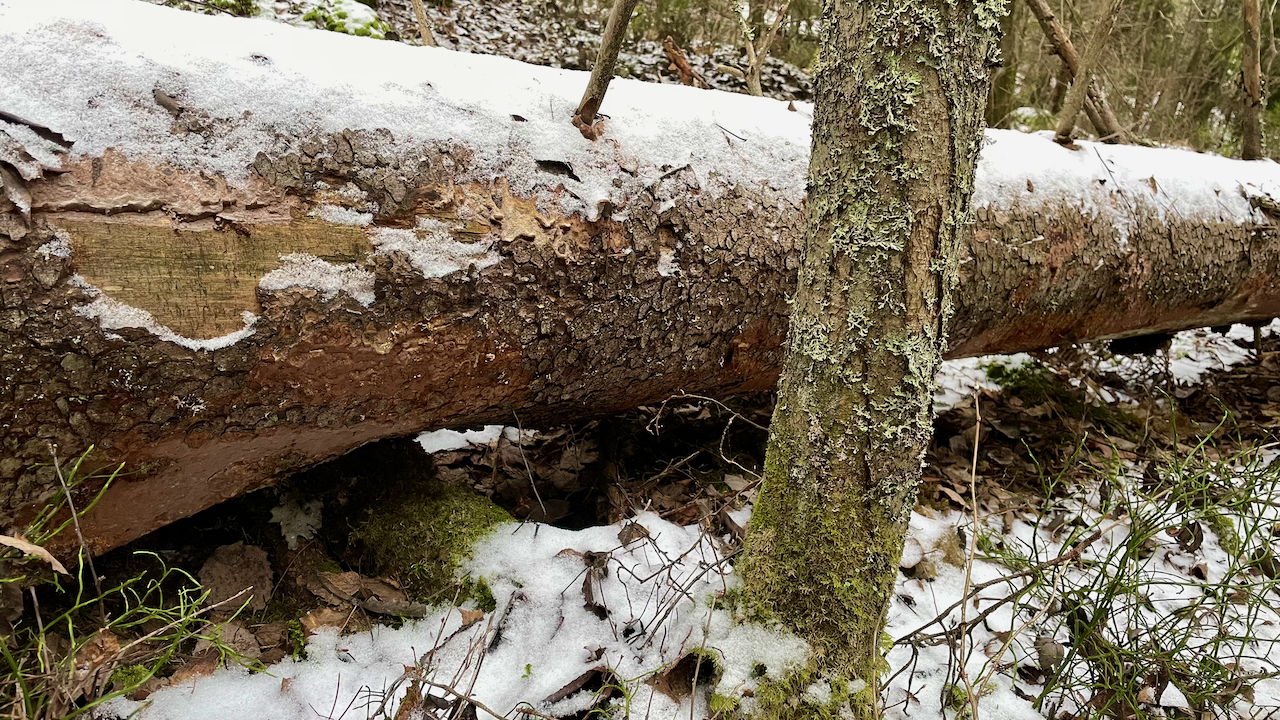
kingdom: Fungi
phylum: Basidiomycota
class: Agaricomycetes
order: Polyporales
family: Meruliaceae
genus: Hermanssonia
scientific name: Hermanssonia centrifuga
